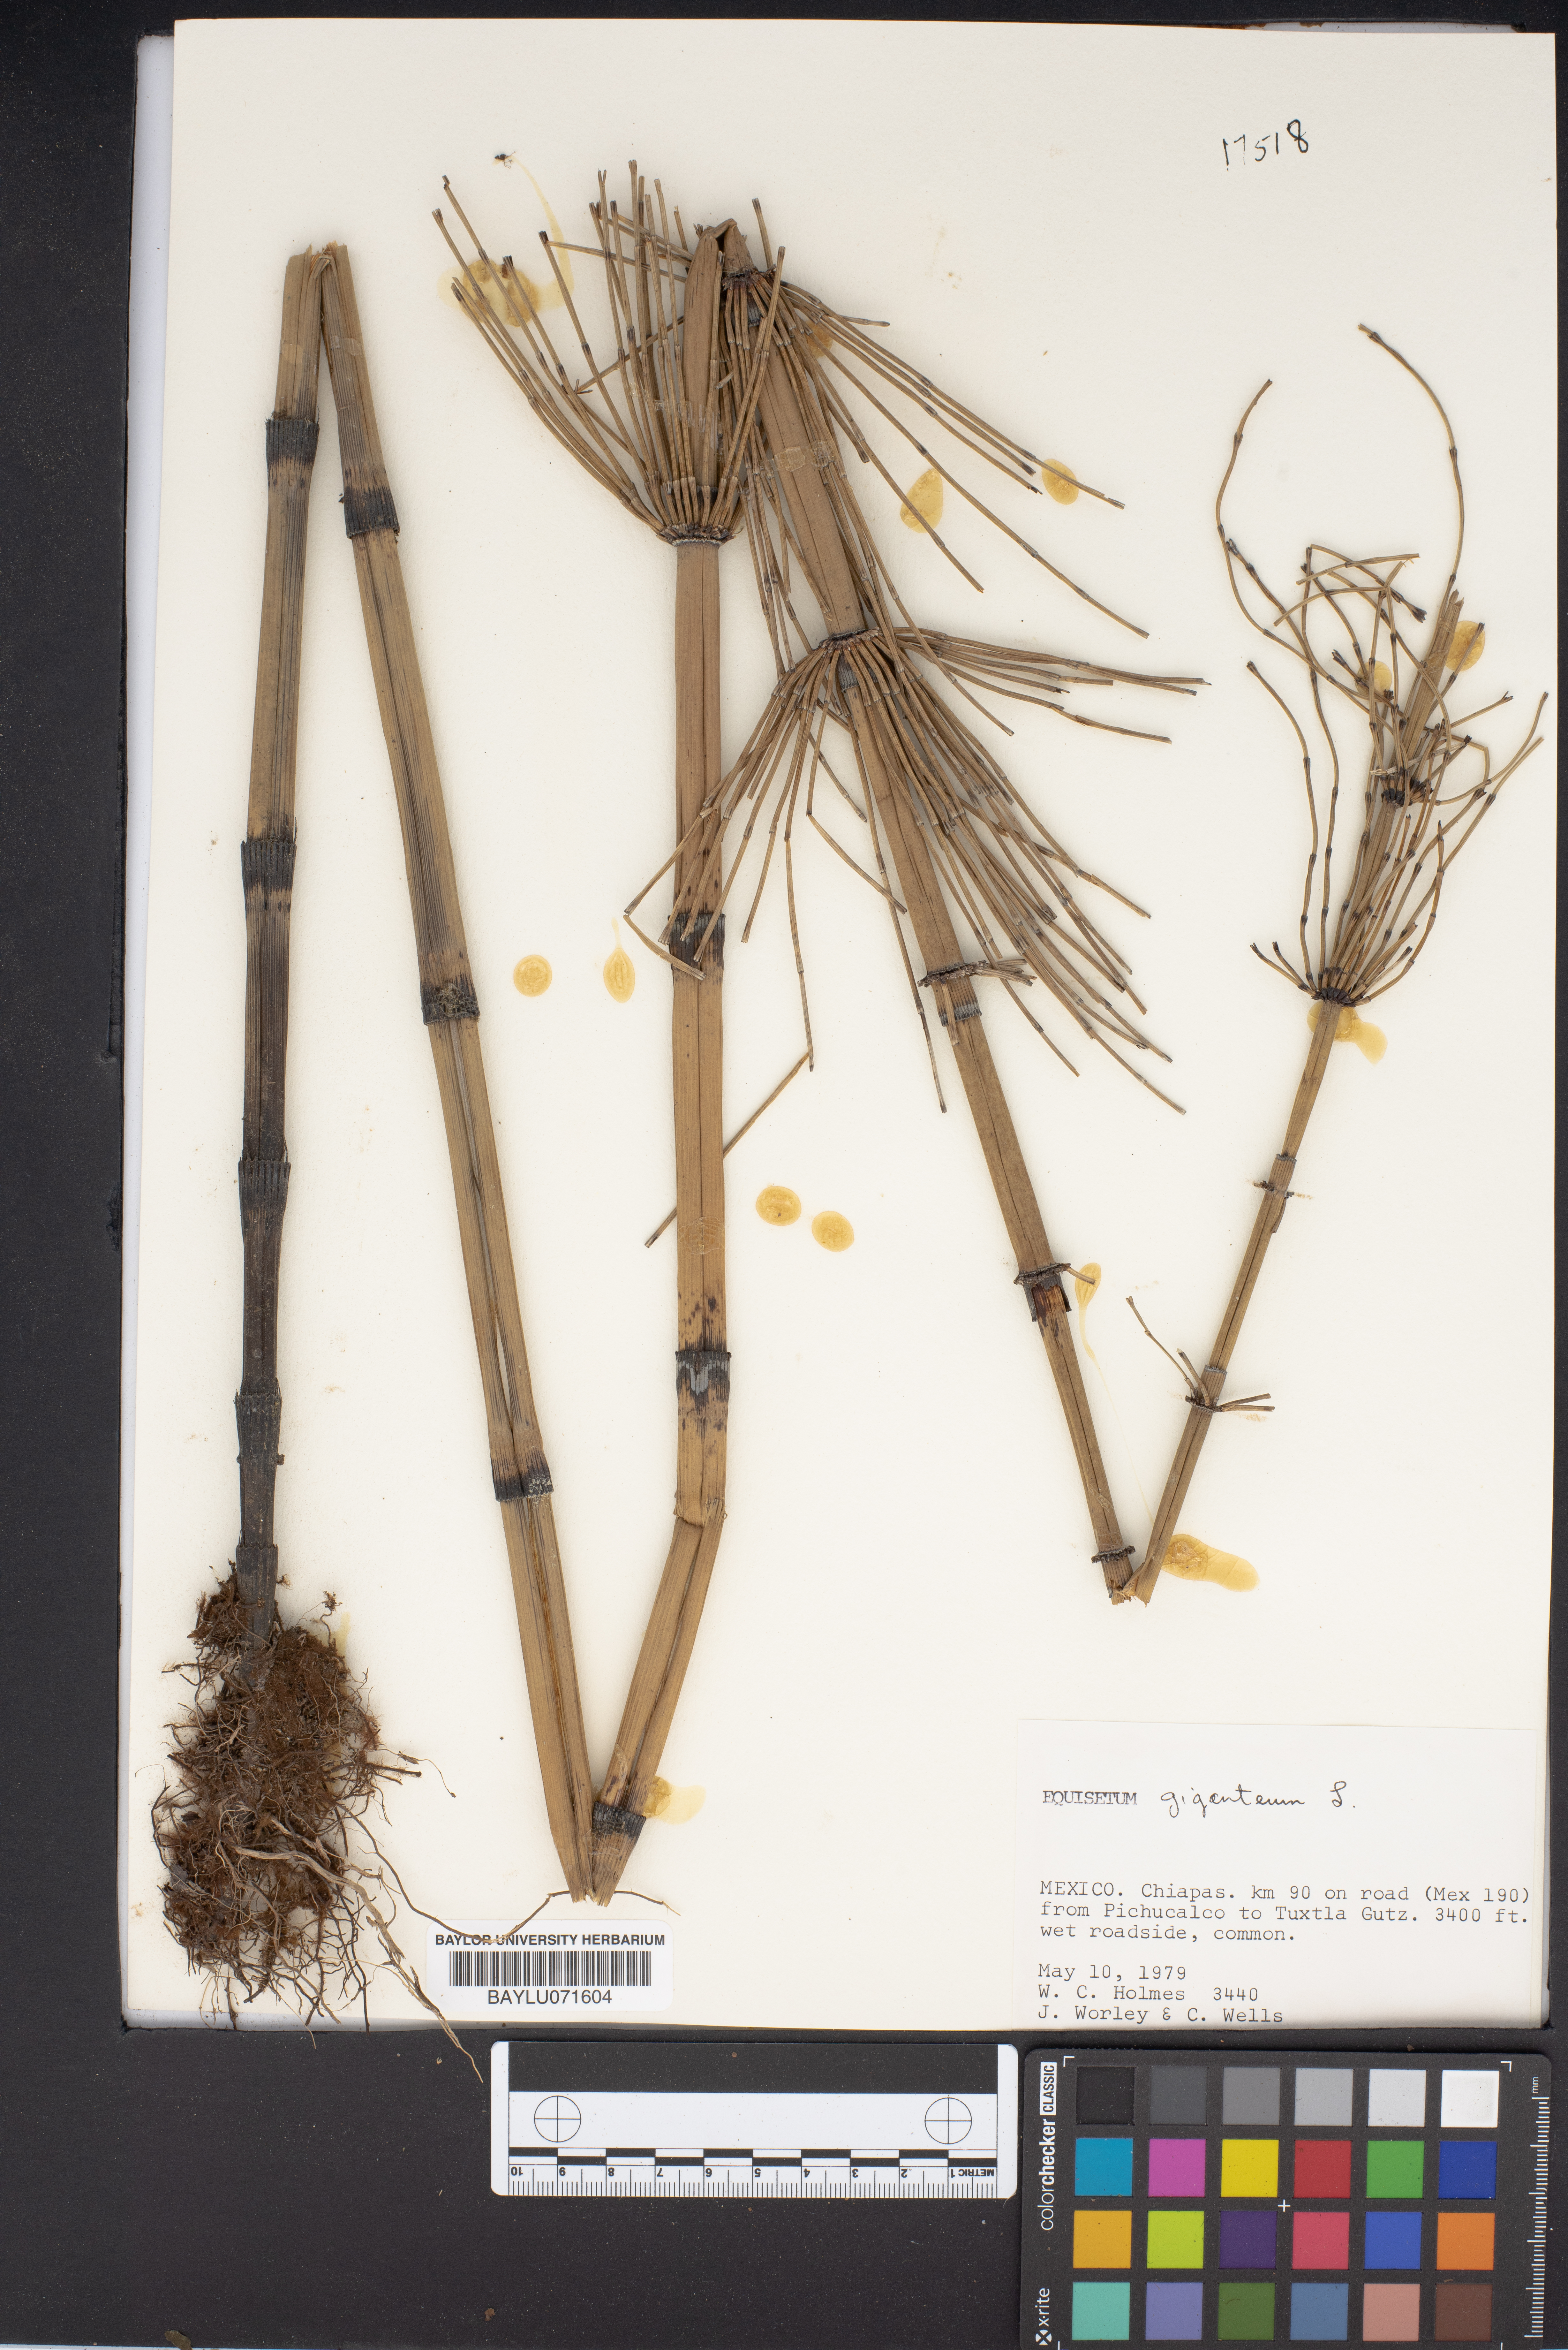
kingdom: Plantae
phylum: Tracheophyta
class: Polypodiopsida
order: Equisetales
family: Equisetaceae
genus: Equisetum
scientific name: Equisetum giganteum
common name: Giant horsetail
